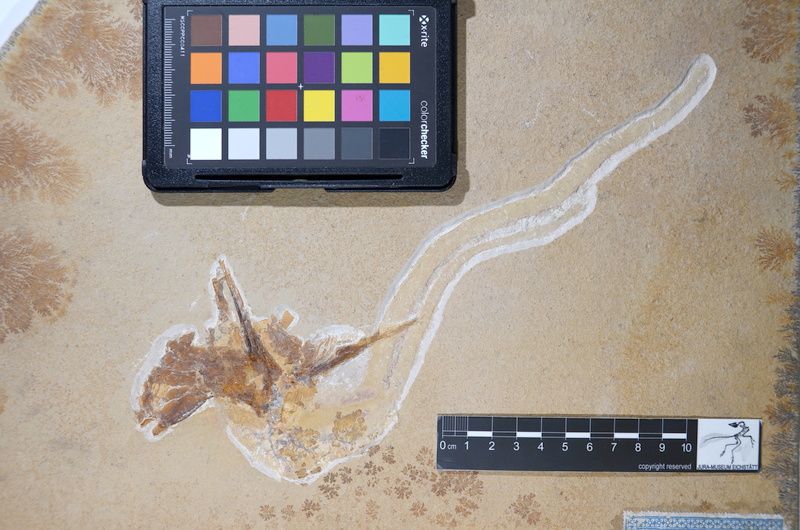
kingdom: Animalia
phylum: Chordata
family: Aspidorhynchidae
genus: Aspidorhynchus
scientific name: Aspidorhynchus acutirostris
